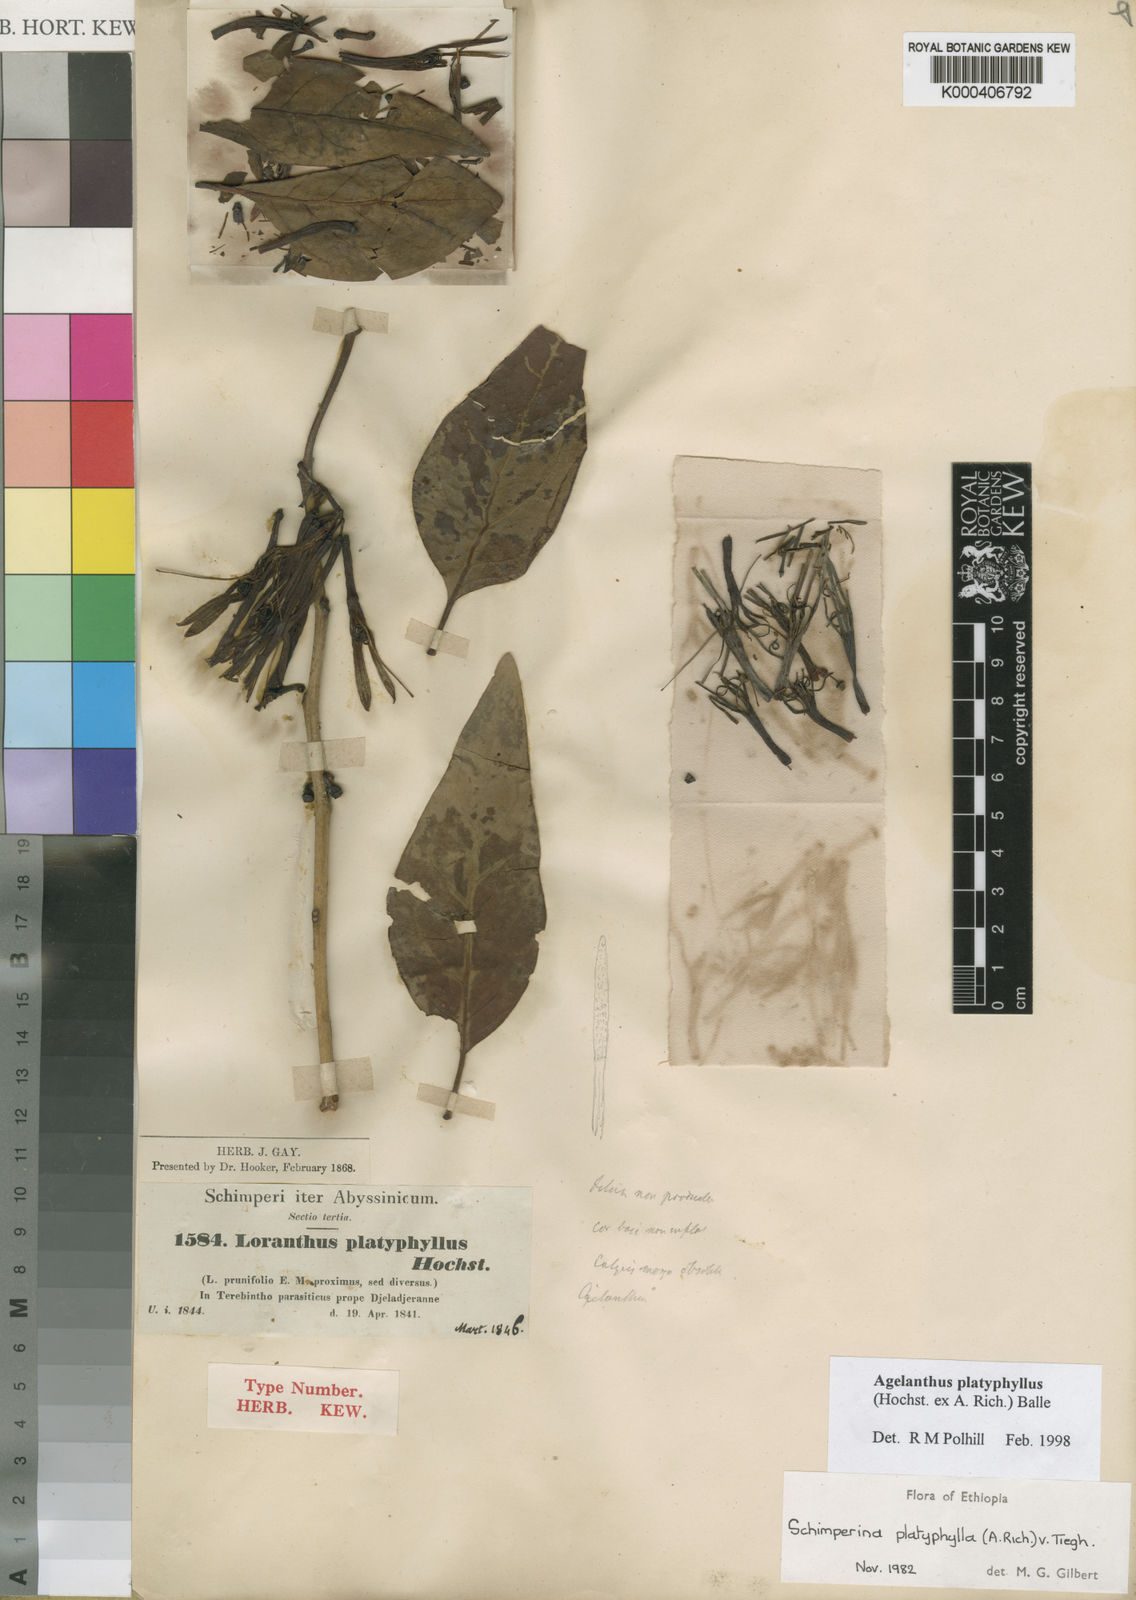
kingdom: Plantae
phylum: Tracheophyta
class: Magnoliopsida
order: Santalales
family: Loranthaceae
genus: Agelanthus
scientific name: Agelanthus platyphyllus
